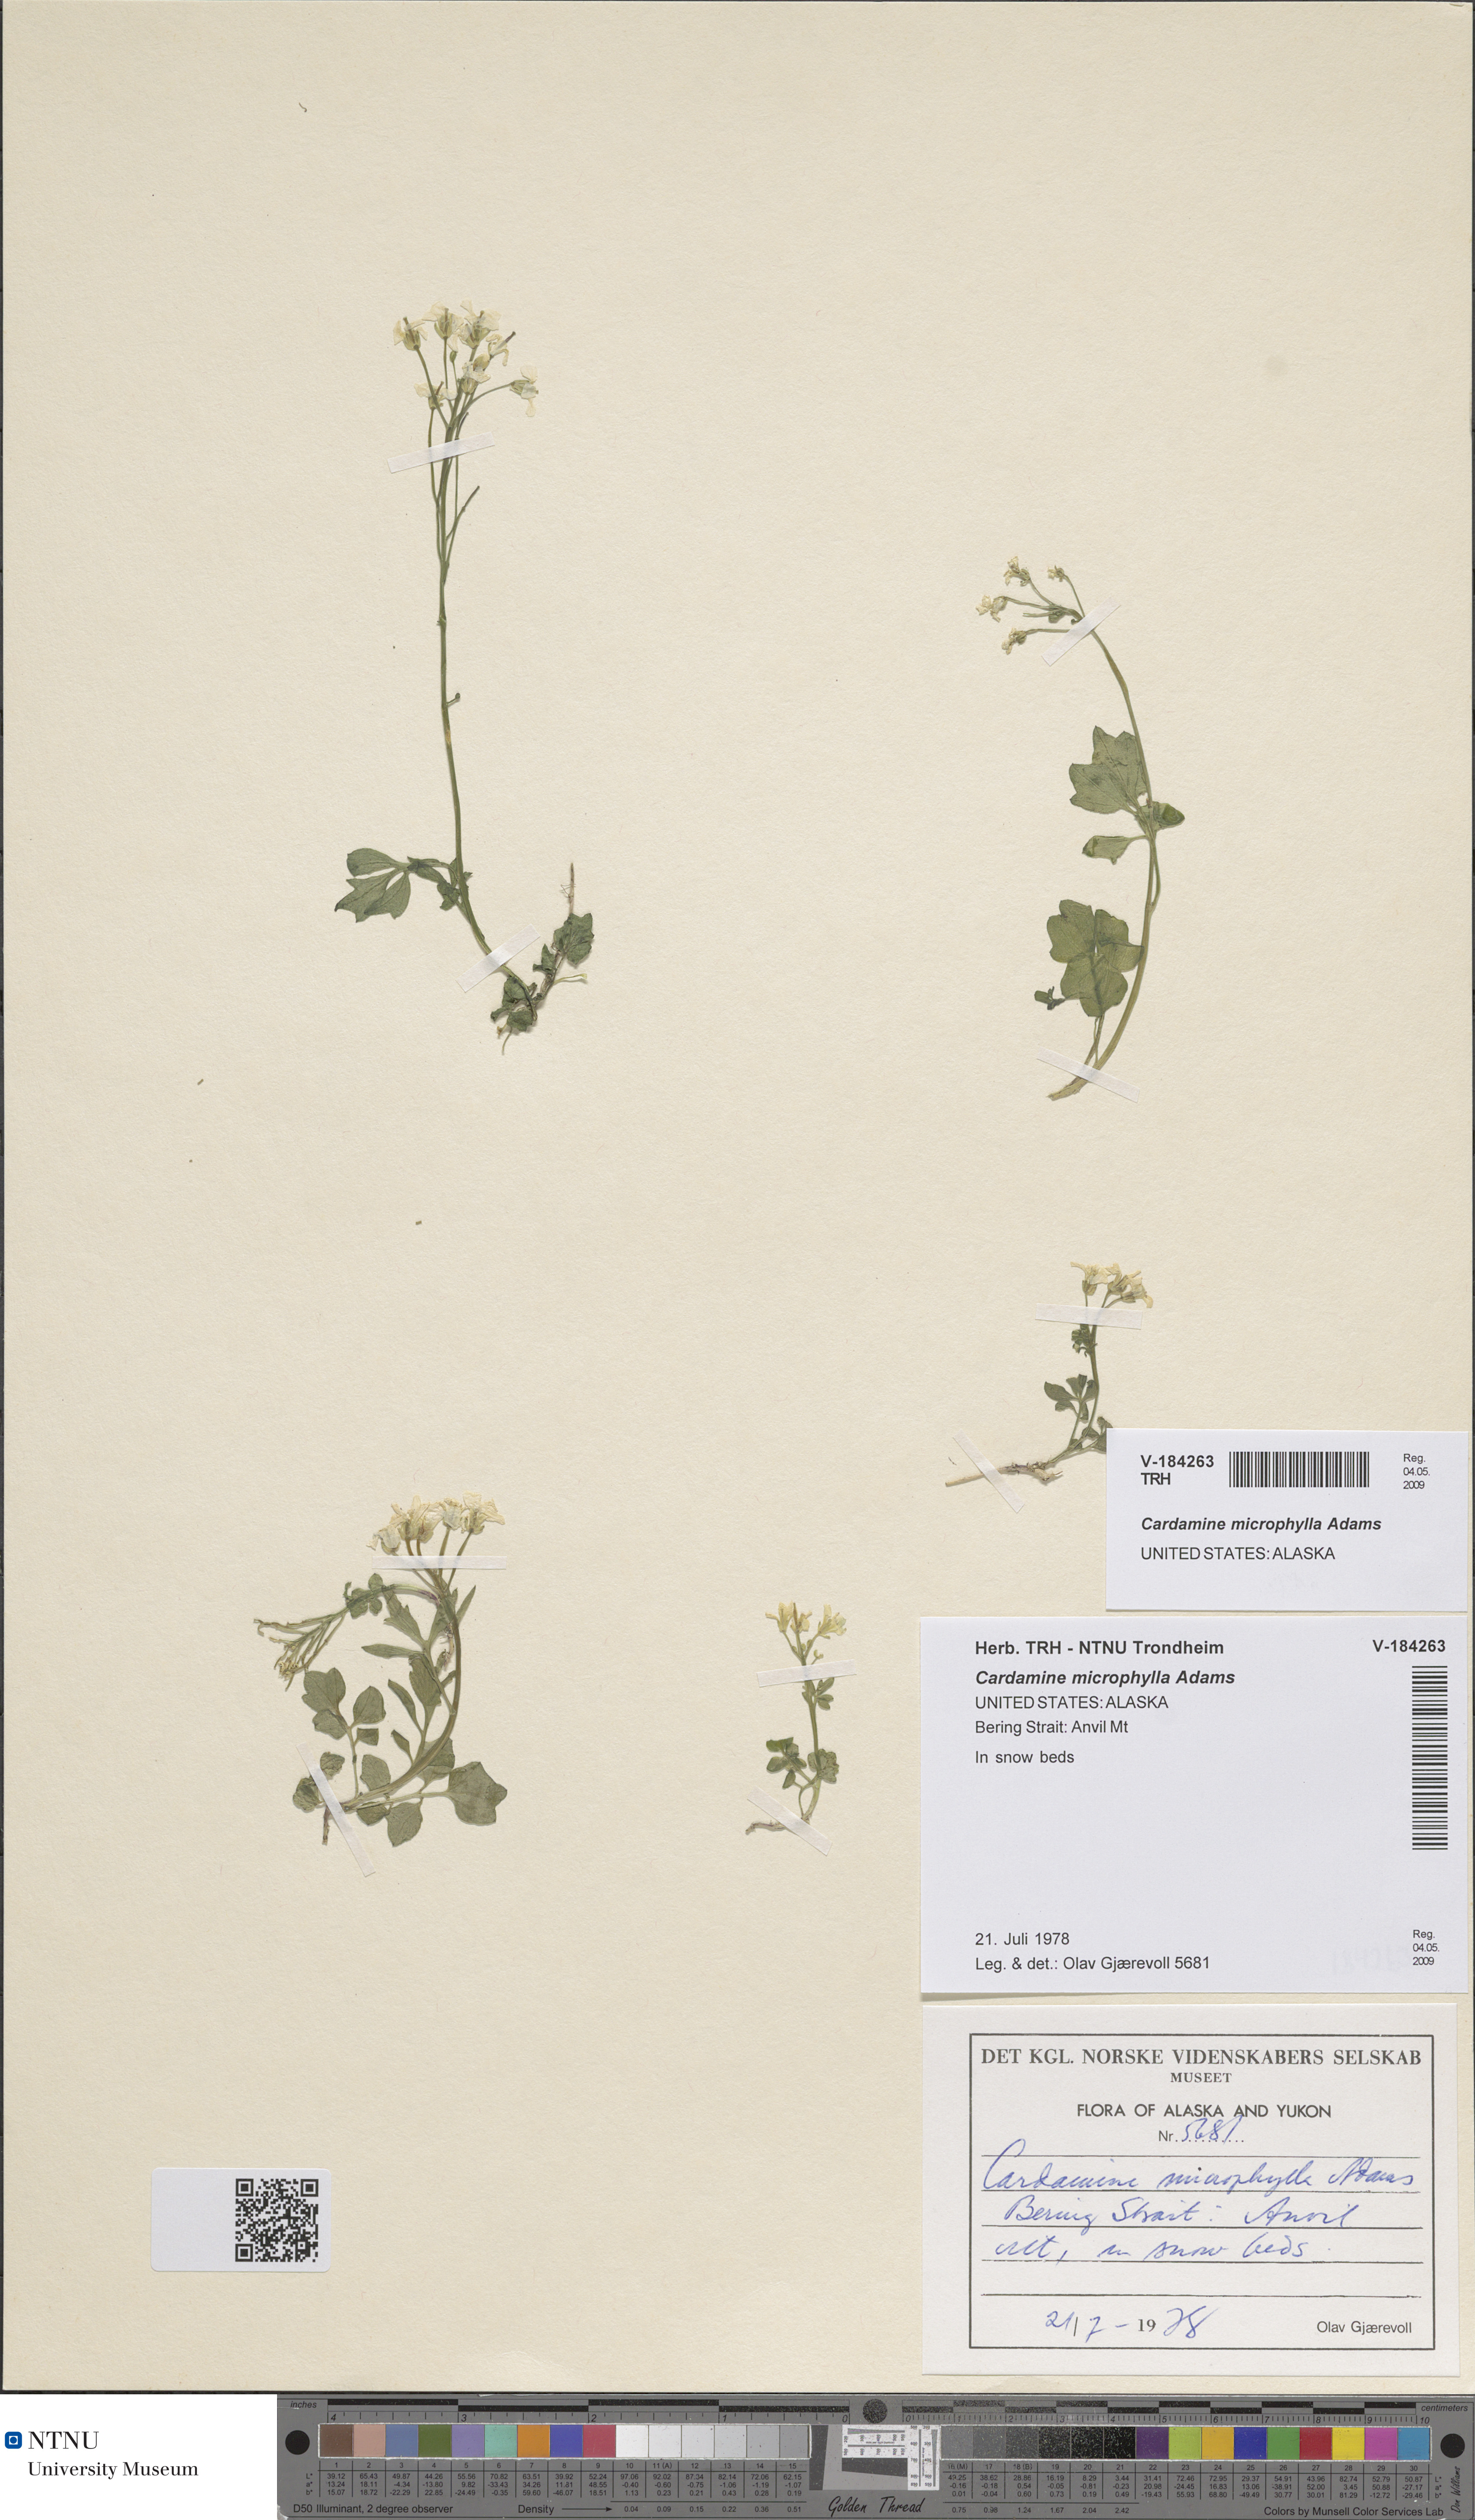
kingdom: Plantae
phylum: Tracheophyta
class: Magnoliopsida
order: Brassicales
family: Brassicaceae
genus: Cardamine
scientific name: Cardamine microphylla
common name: Little-leaved bittercress
